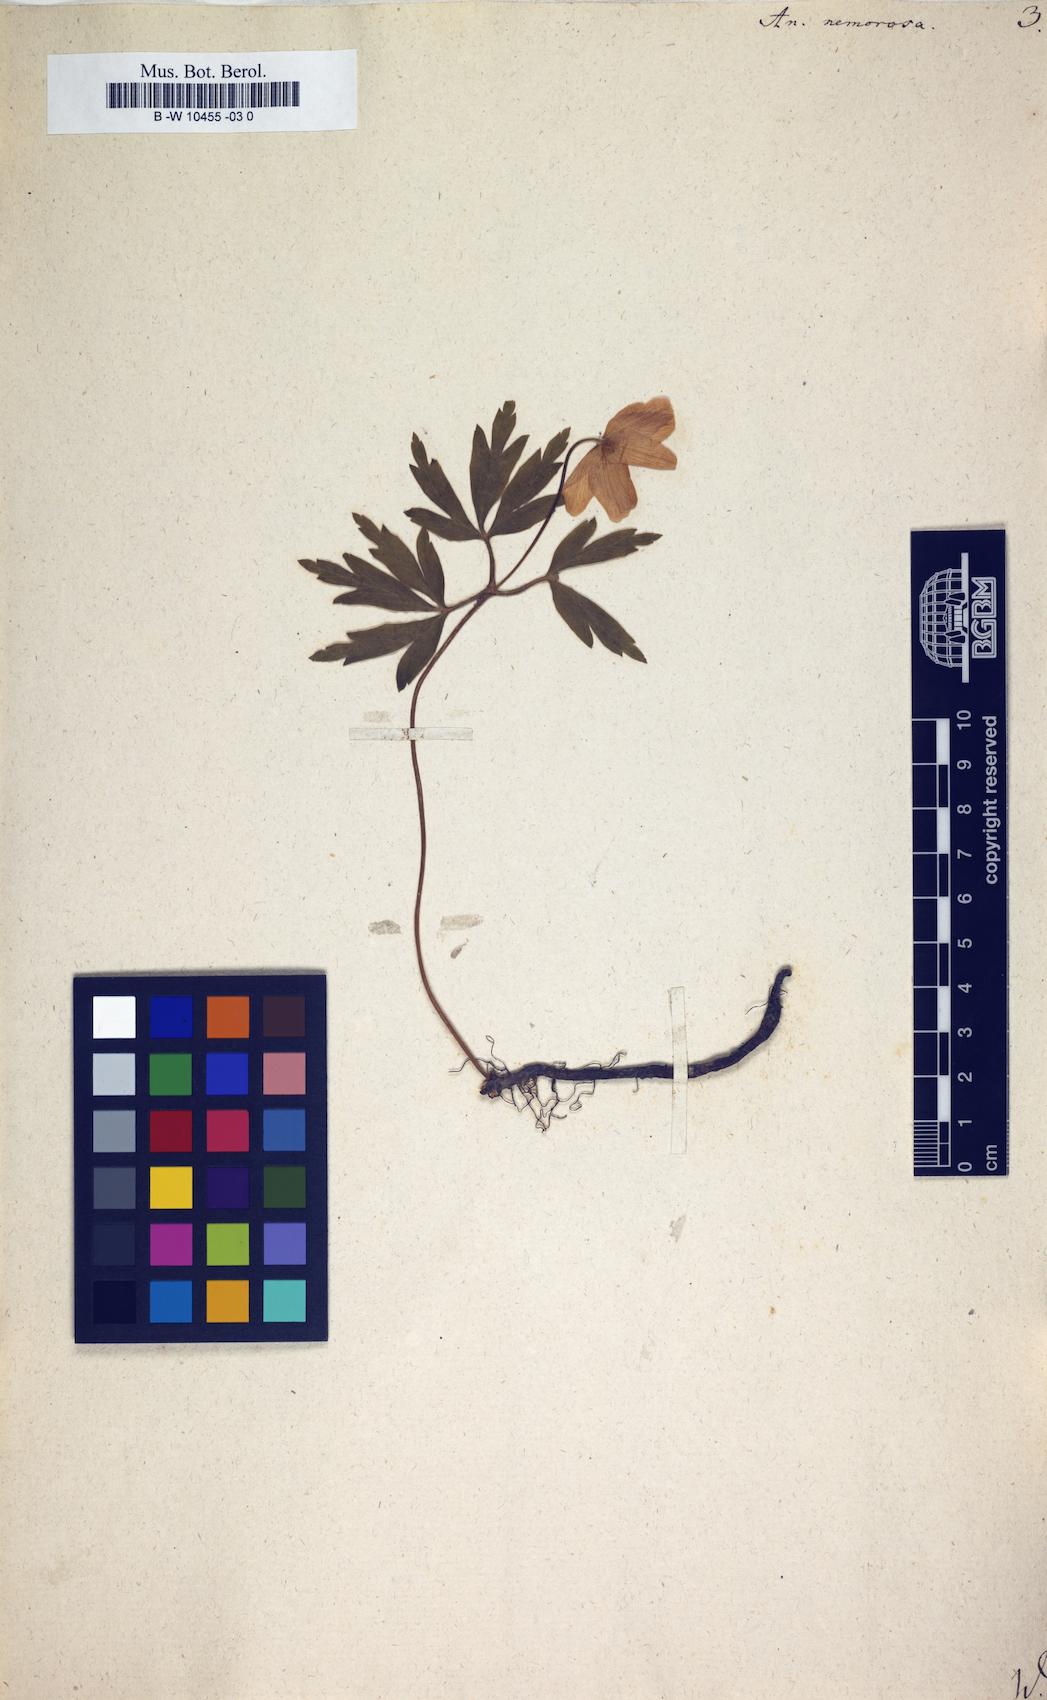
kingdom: Plantae
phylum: Tracheophyta
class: Magnoliopsida
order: Ranunculales
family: Ranunculaceae
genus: Anemone
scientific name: Anemone nemorosa
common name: Wood anemone
